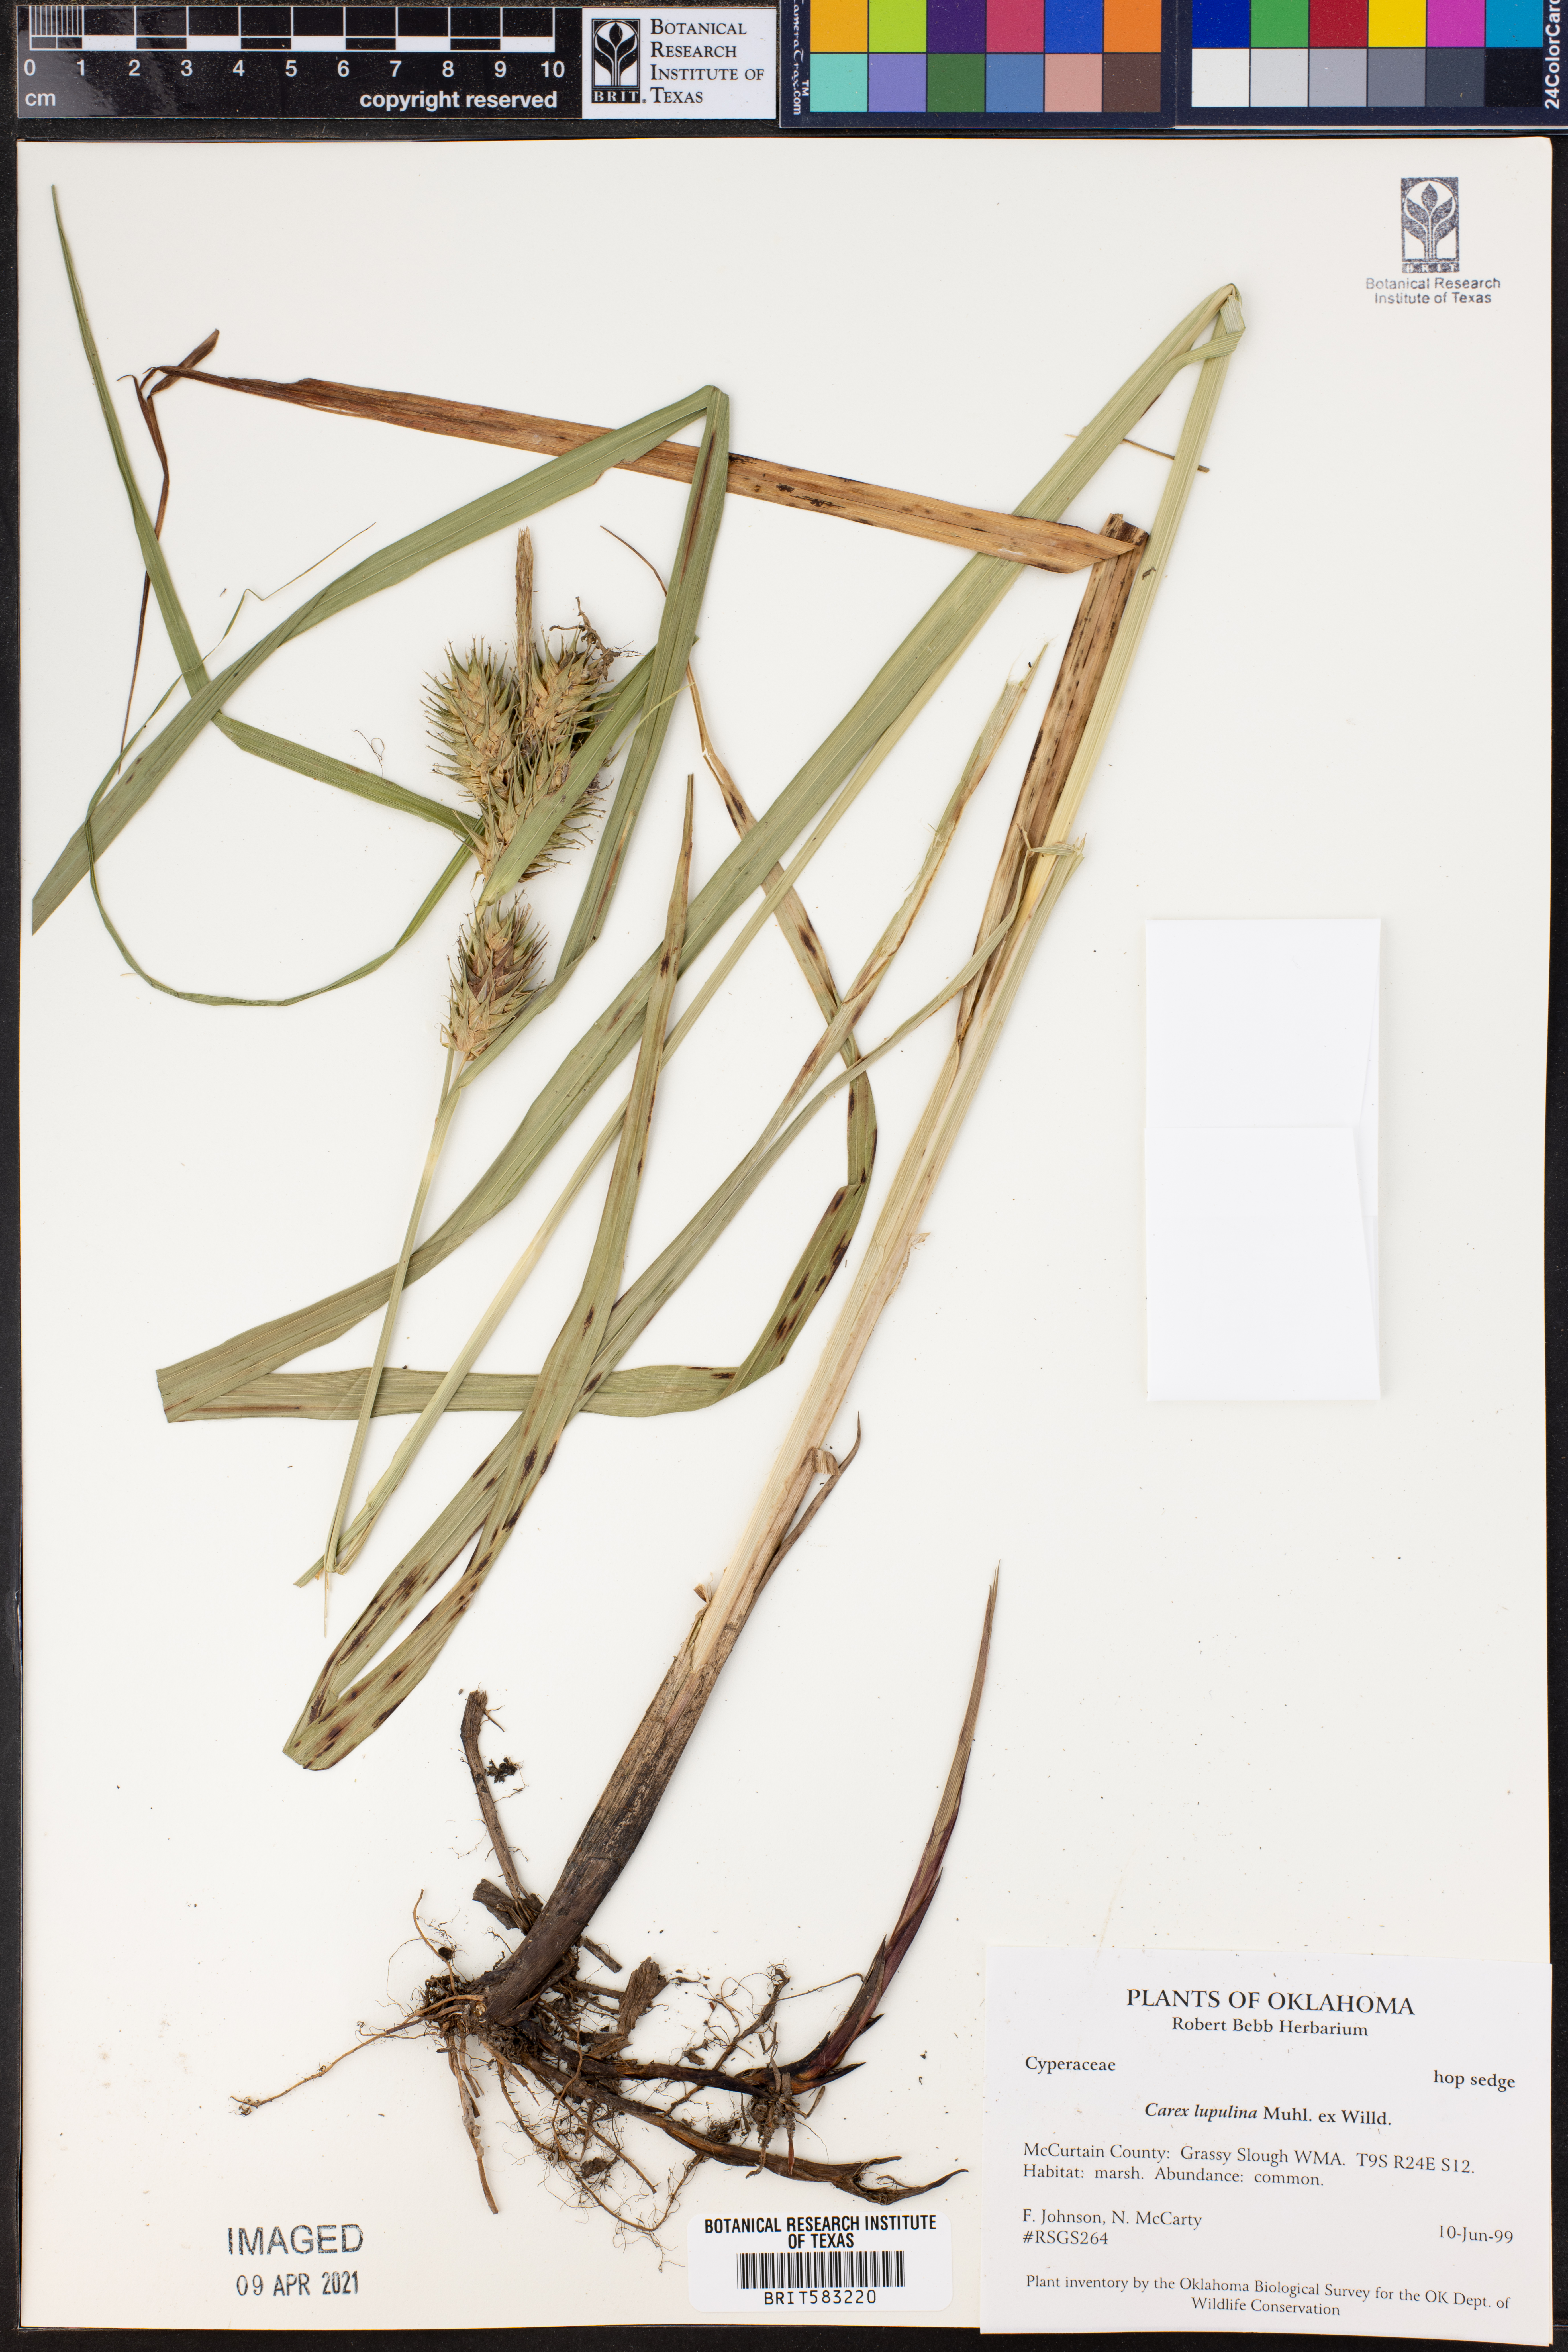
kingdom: Plantae
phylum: Tracheophyta
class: Liliopsida
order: Poales
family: Cyperaceae
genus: Carex
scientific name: Carex lupulina
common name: Hop sedge
